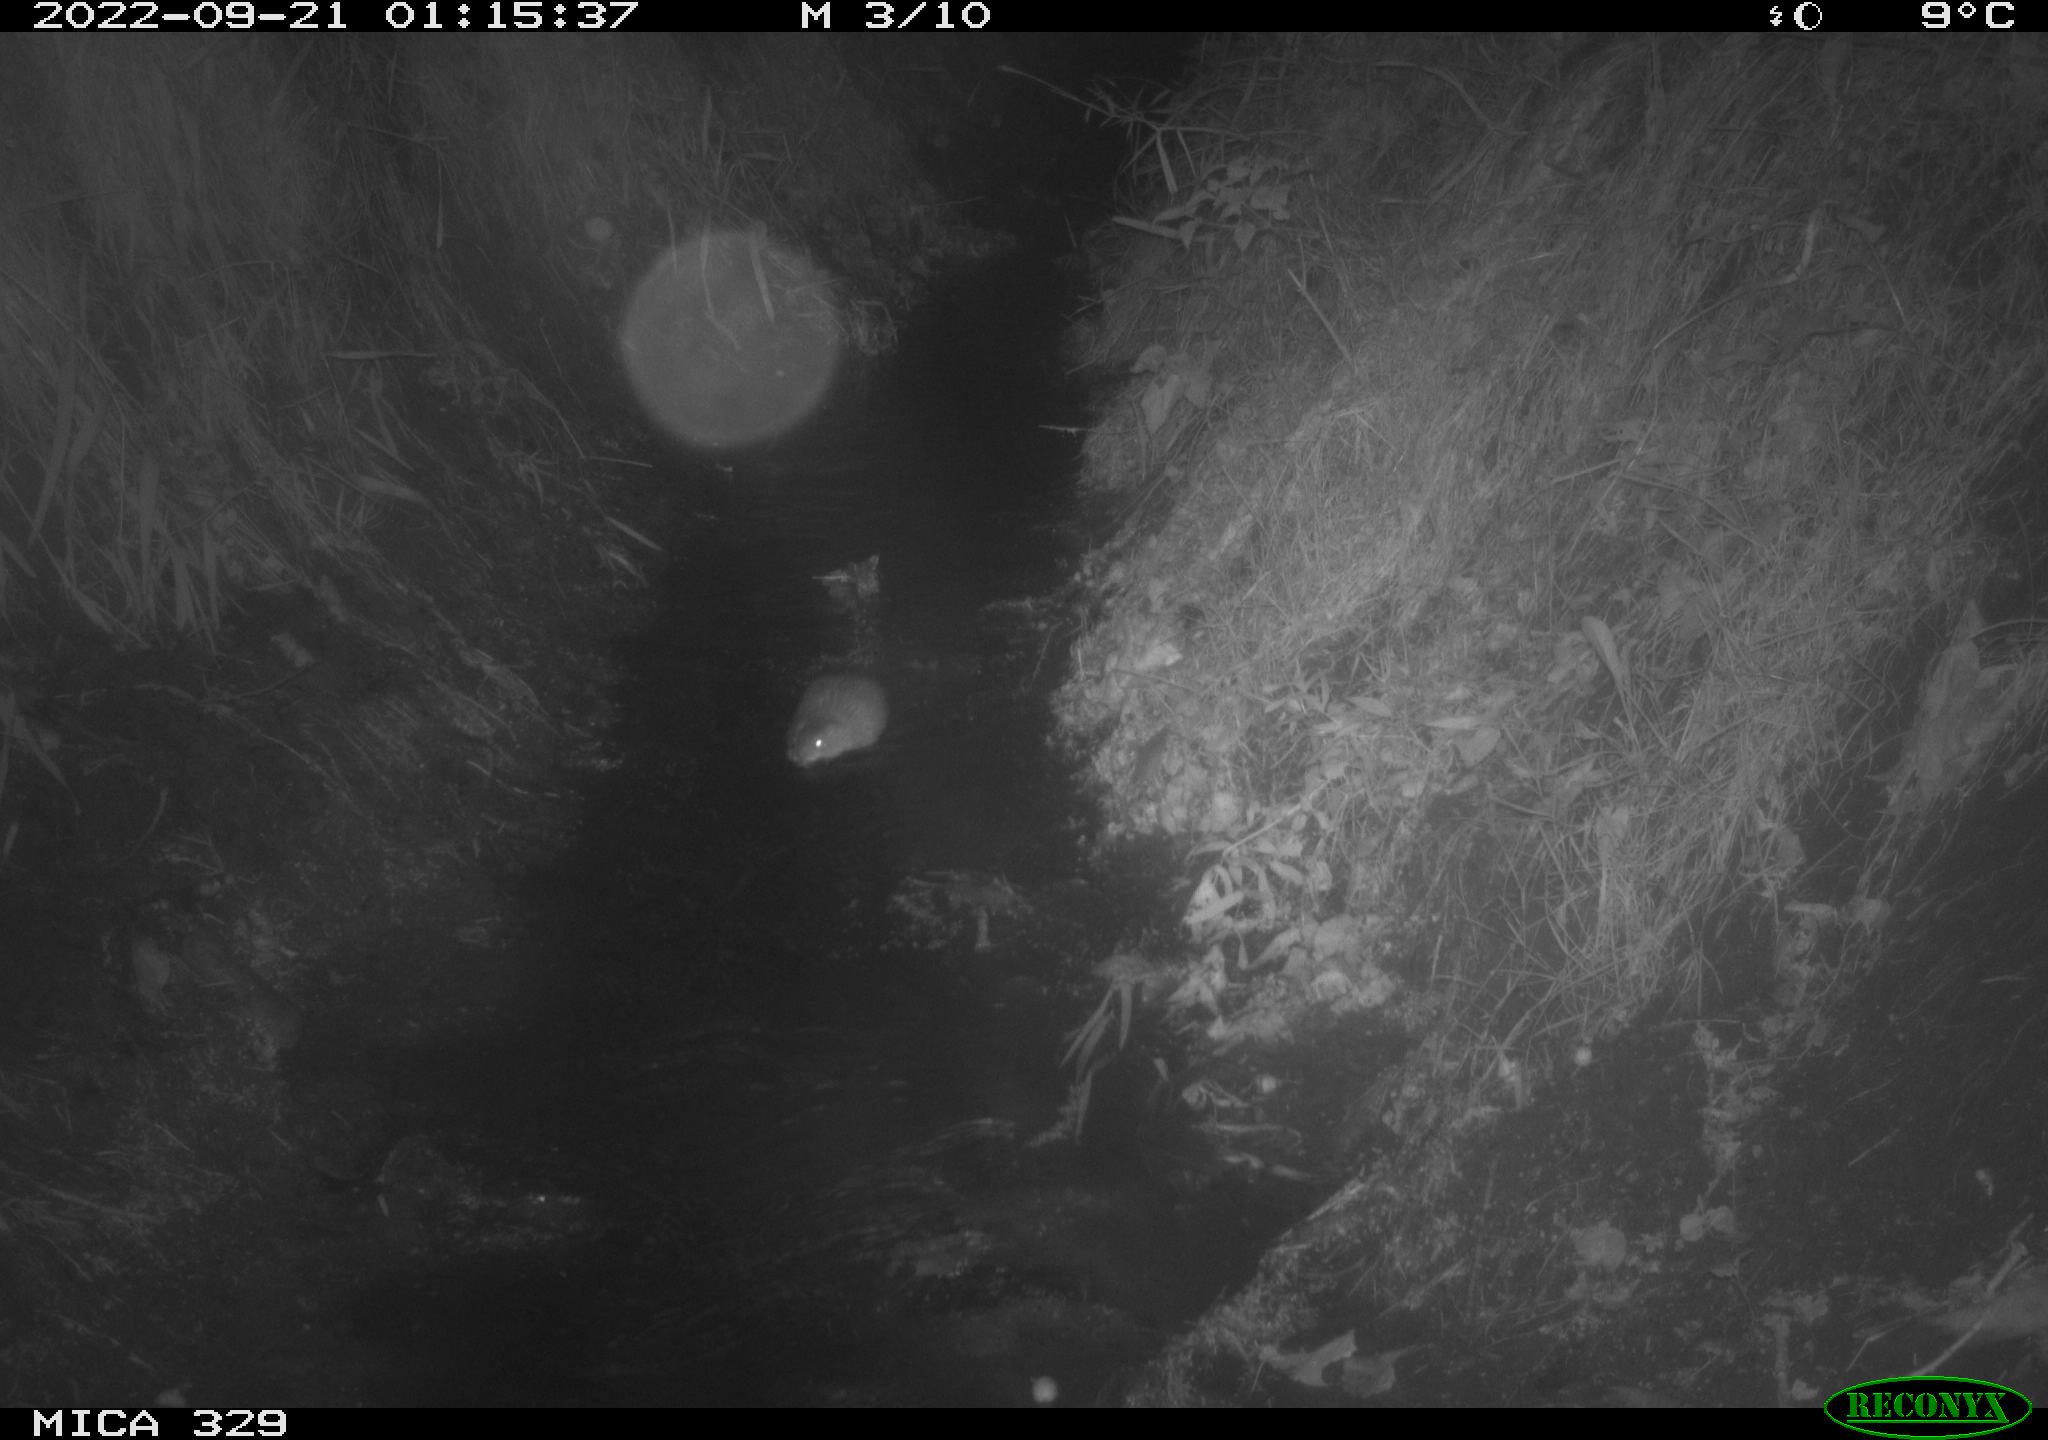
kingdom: Animalia
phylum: Chordata
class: Mammalia
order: Rodentia
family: Cricetidae
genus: Ondatra
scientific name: Ondatra zibethicus
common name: Muskrat
